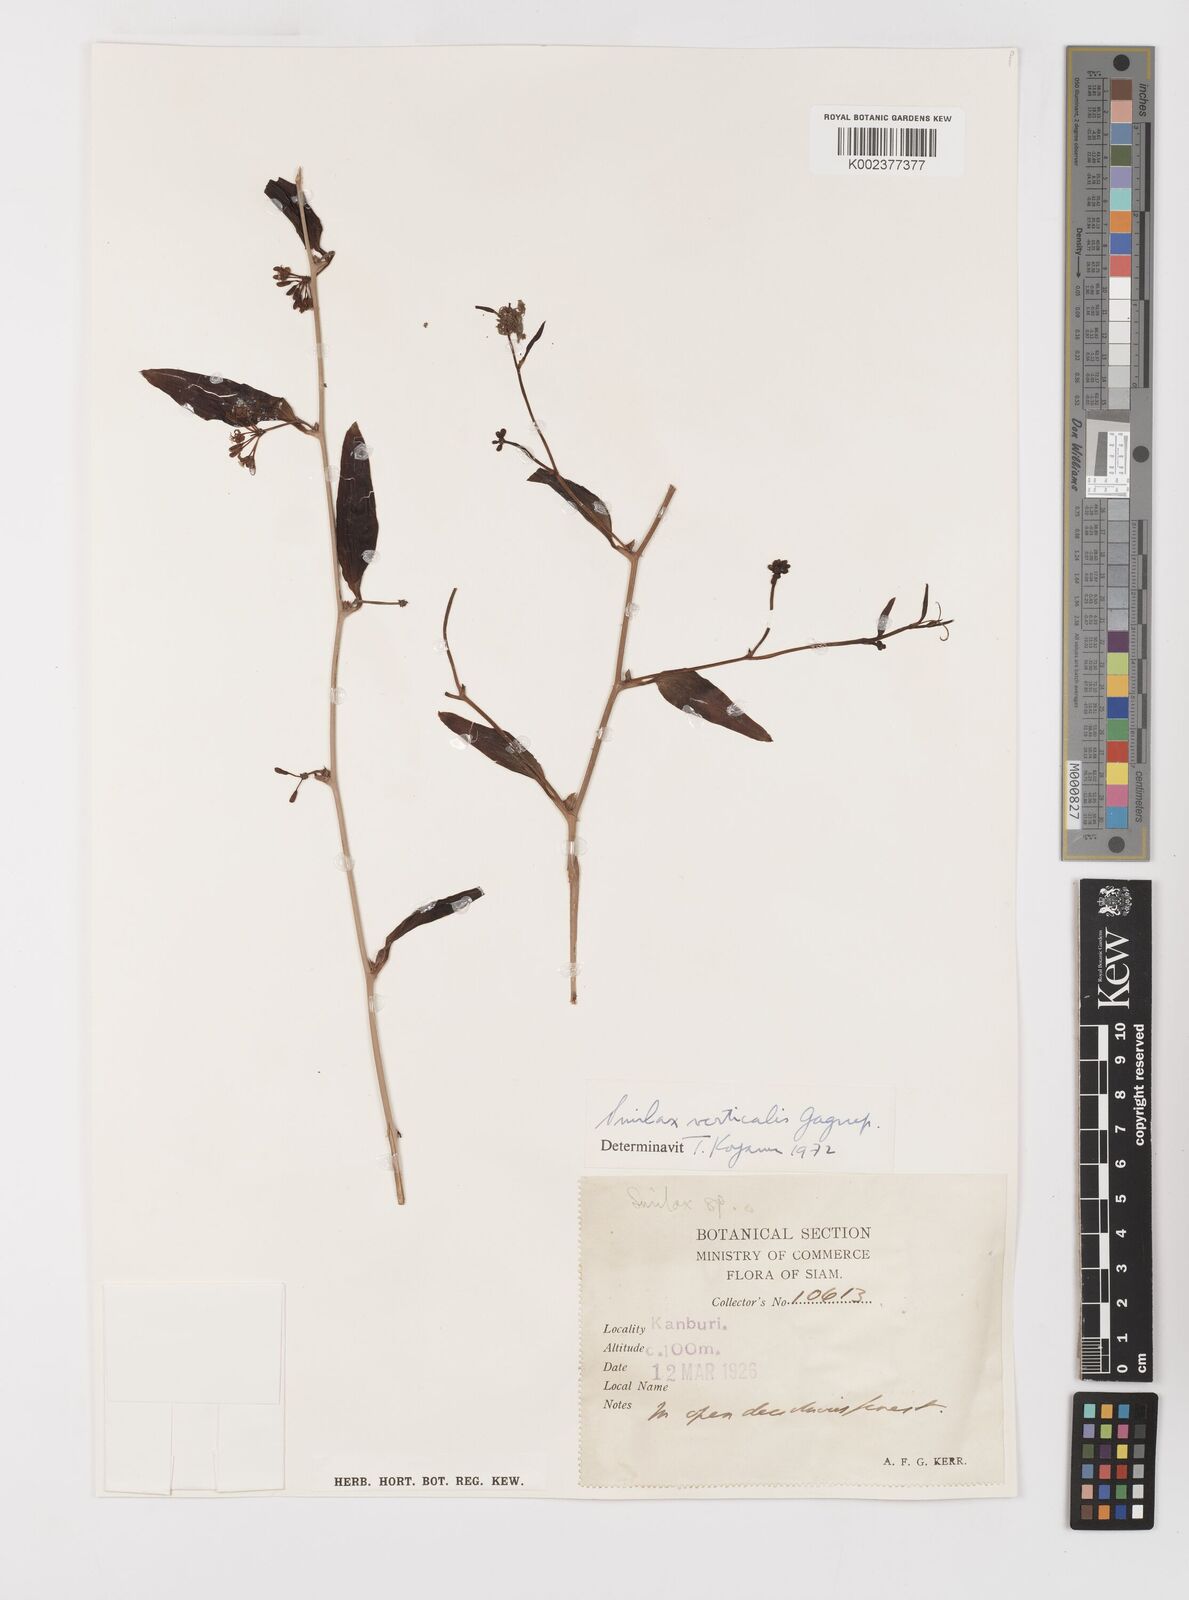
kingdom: Plantae
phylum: Tracheophyta
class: Liliopsida
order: Liliales
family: Smilacaceae
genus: Smilax
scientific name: Smilax verticalis
